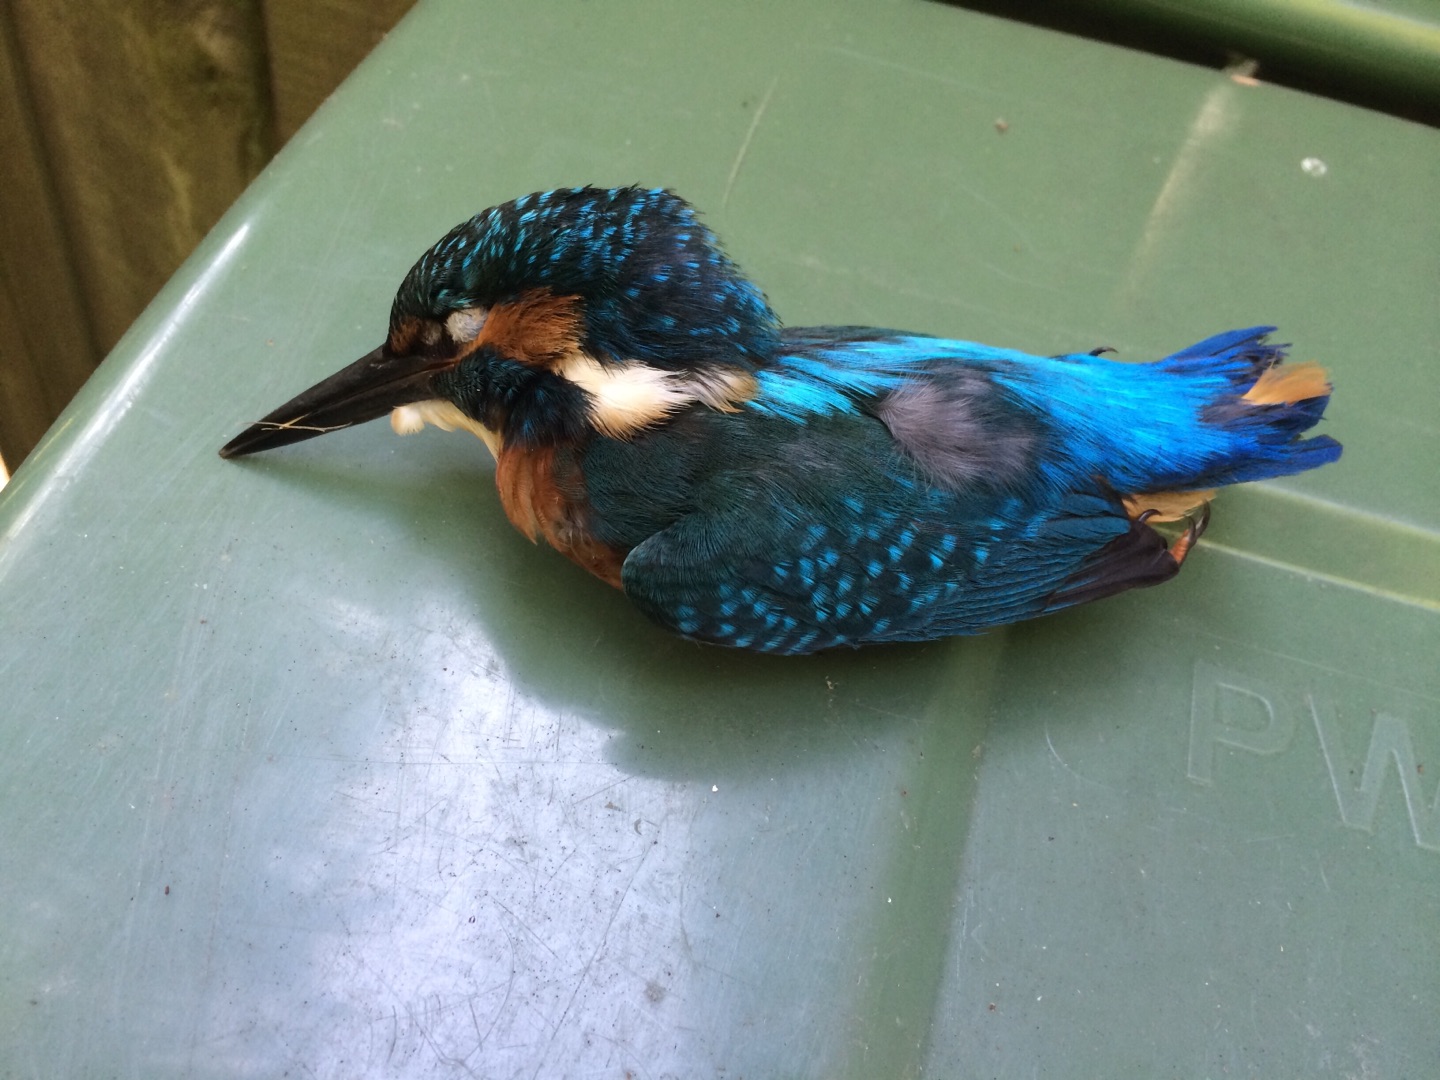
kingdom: Animalia
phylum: Chordata
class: Aves
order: Coraciiformes
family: Alcedinidae
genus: Alcedo
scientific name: Alcedo atthis
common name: Isfugl
